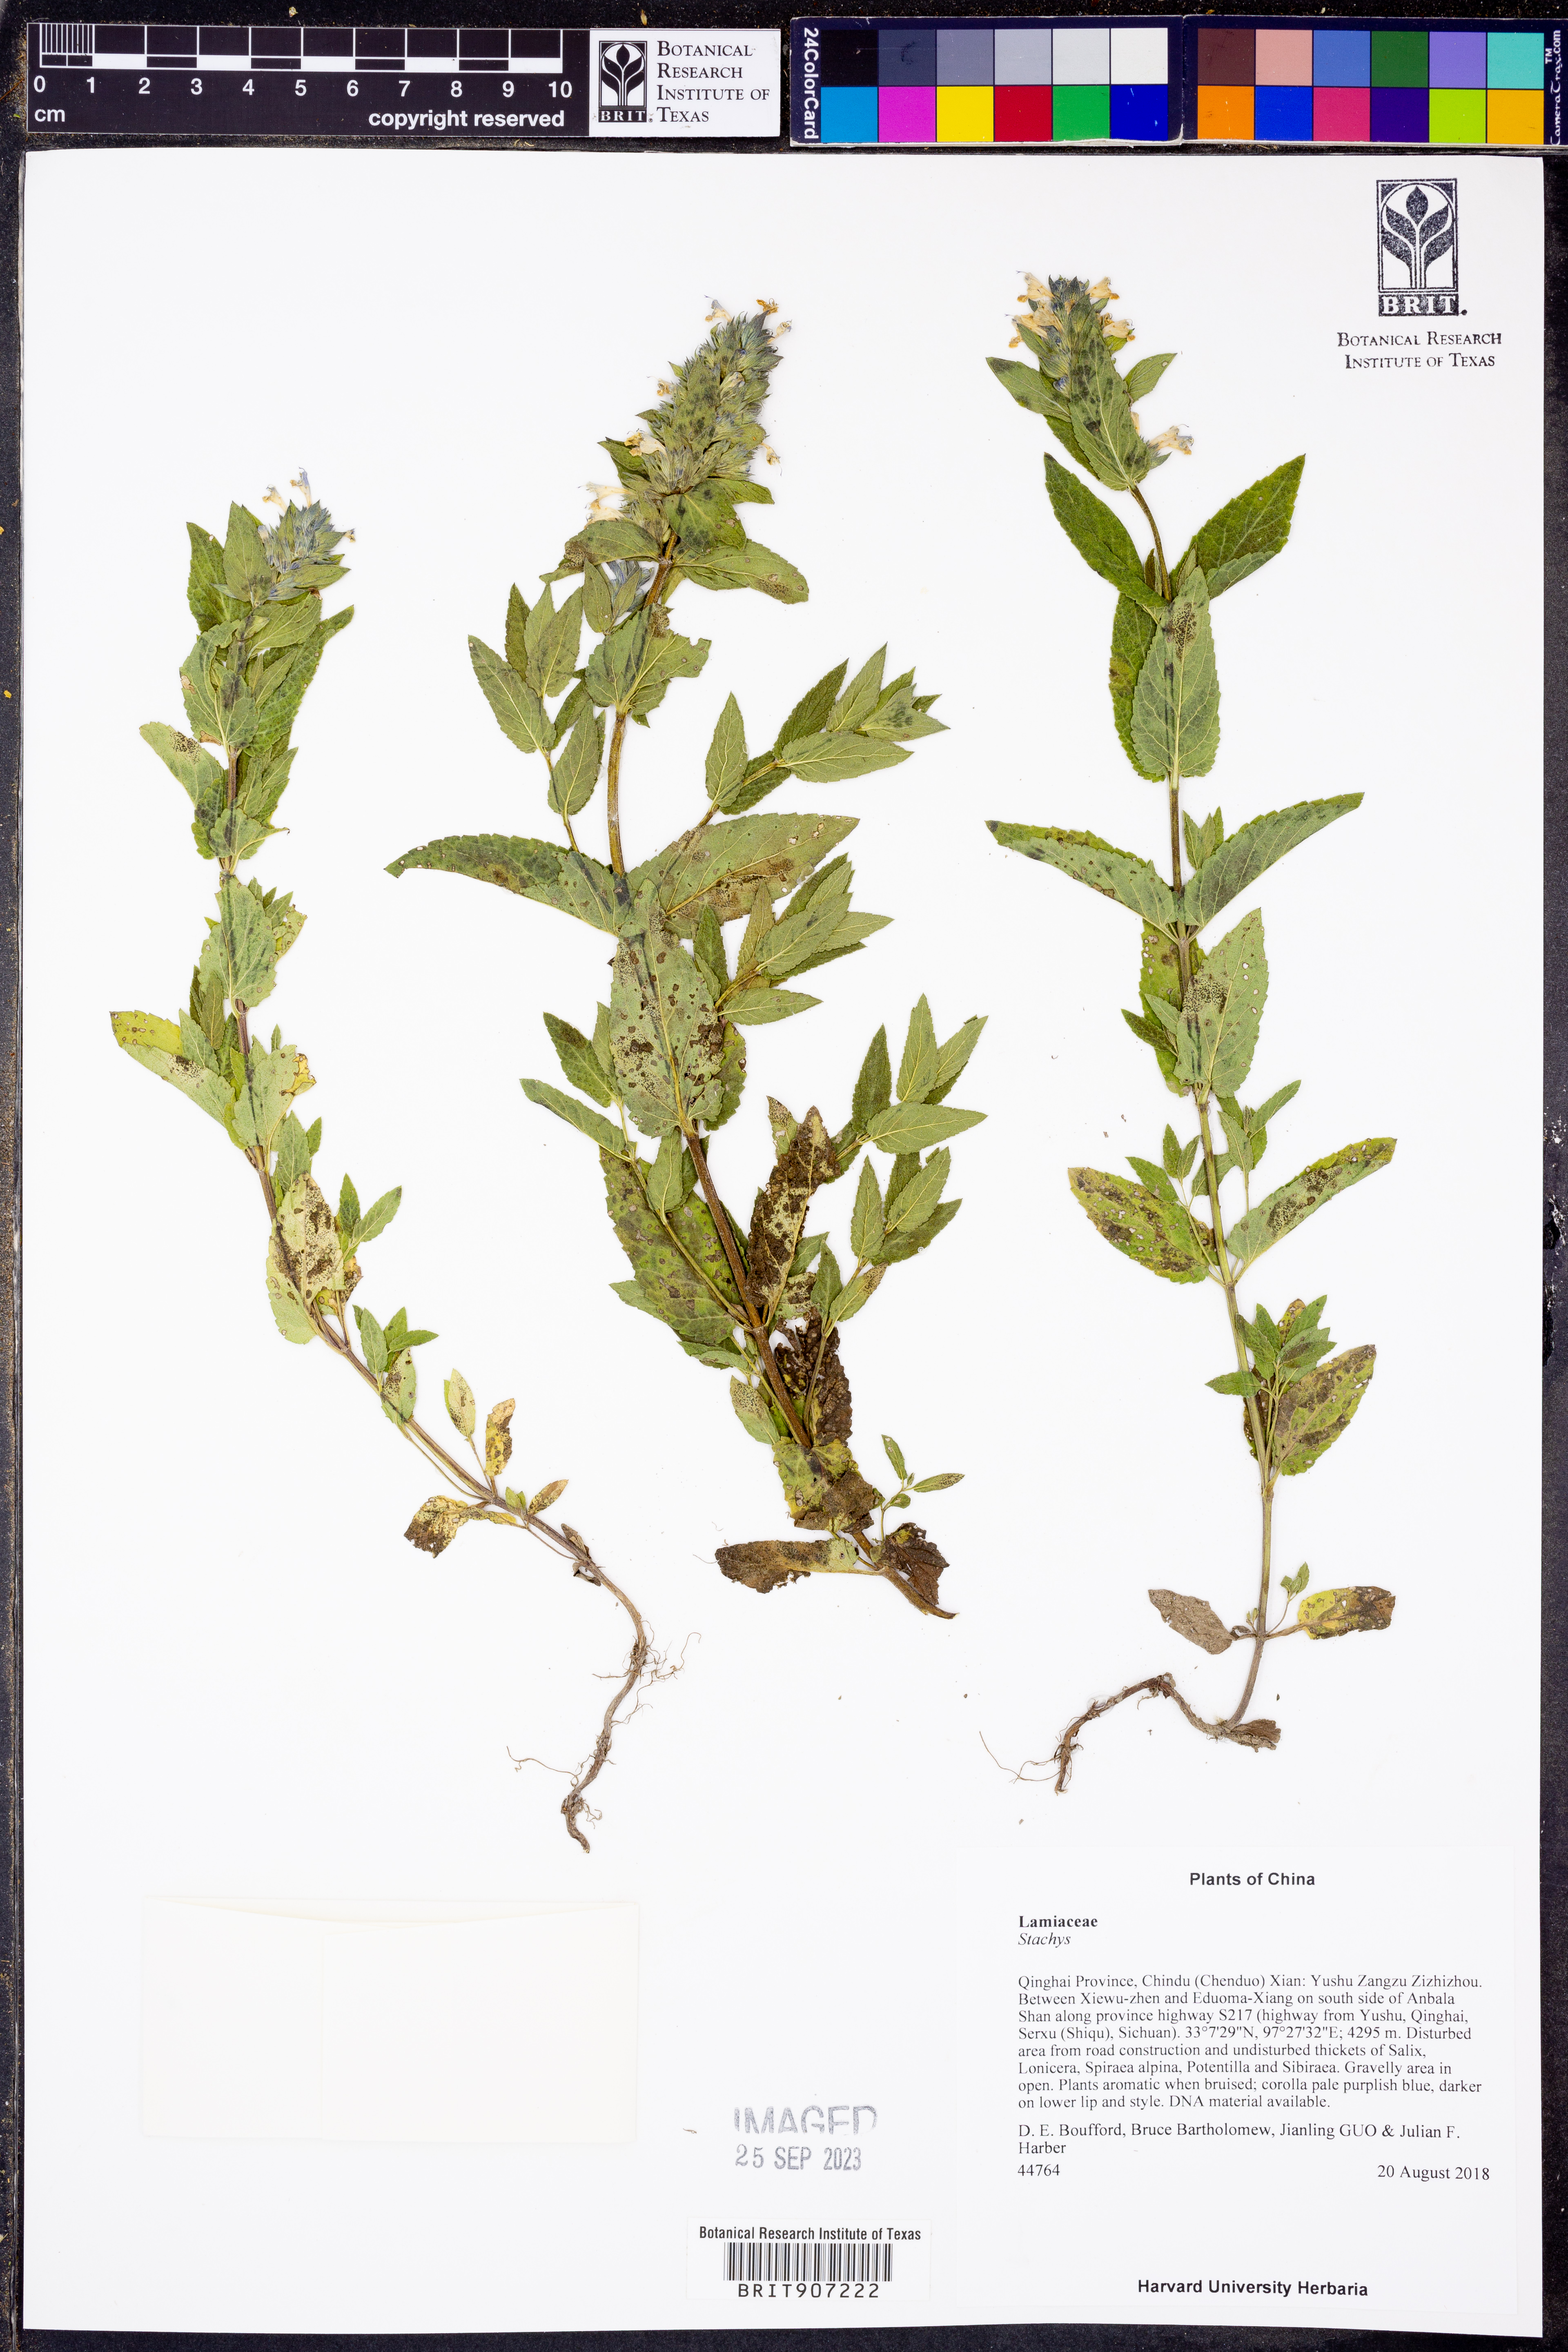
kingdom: Plantae
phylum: Tracheophyta
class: Magnoliopsida
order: Lamiales
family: Lamiaceae
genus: Stachys
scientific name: Stachys
